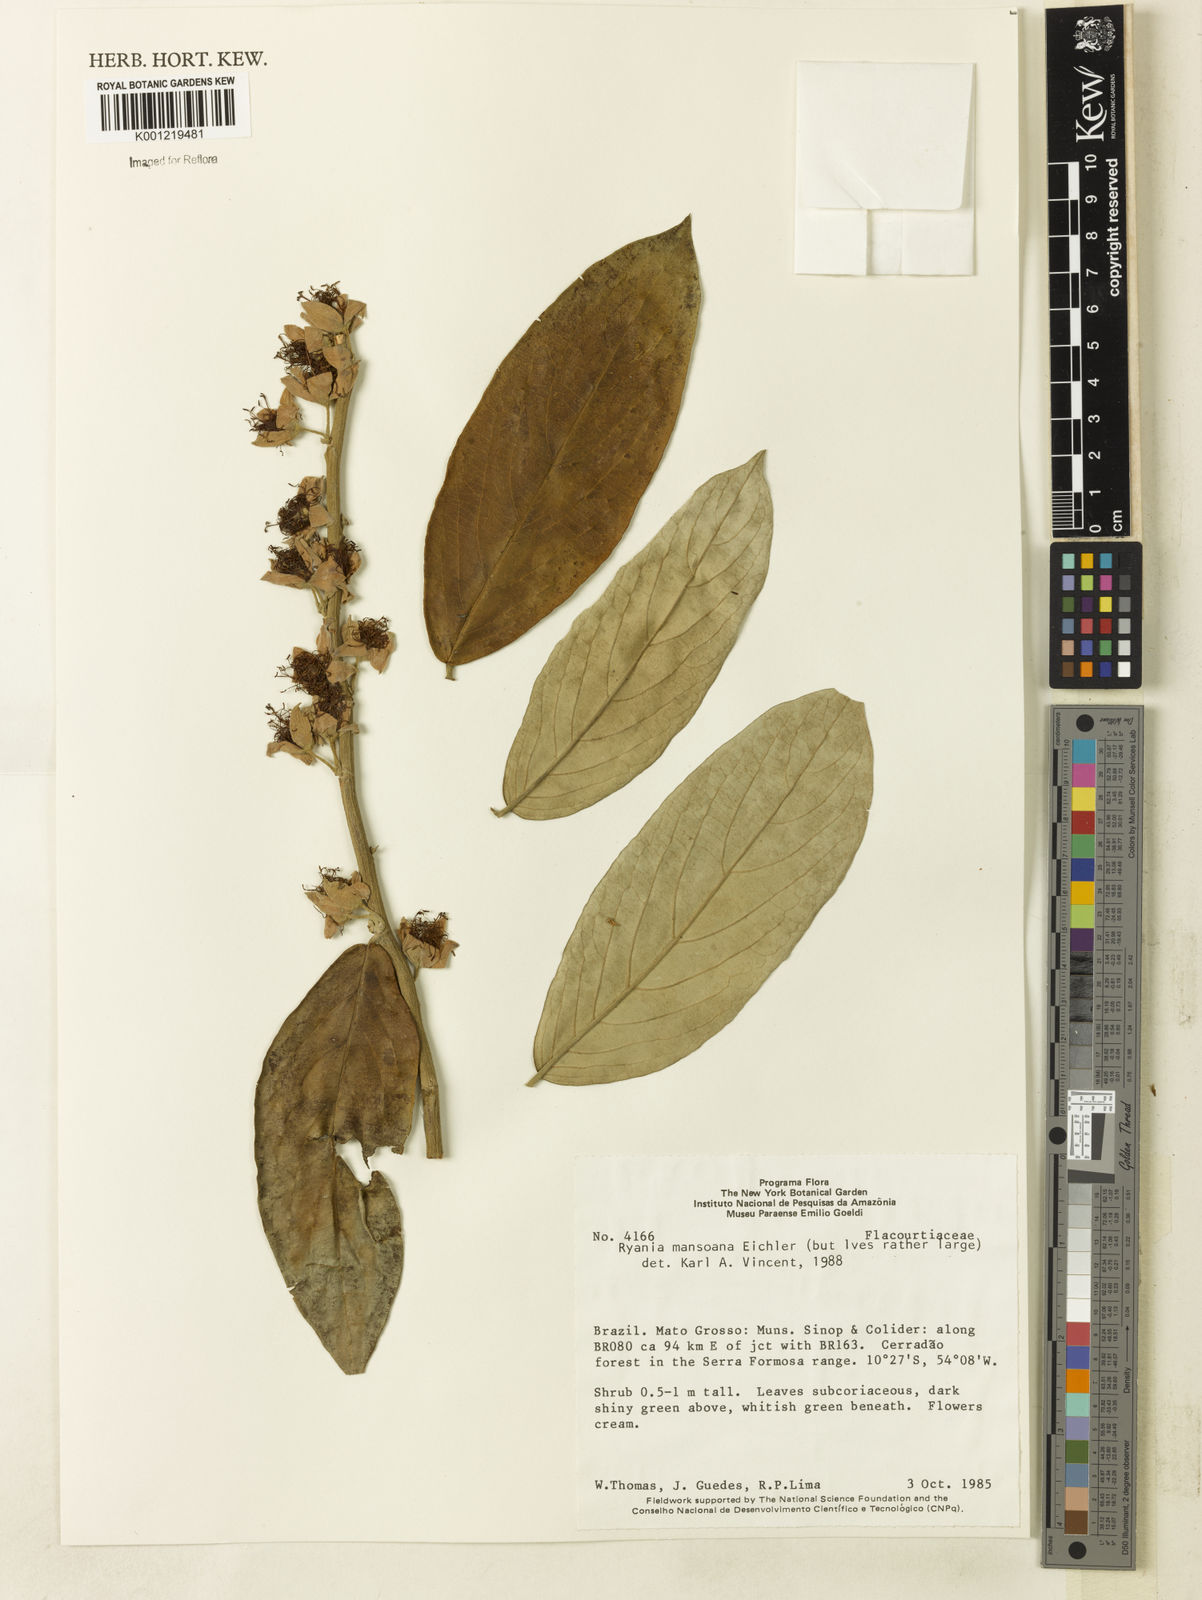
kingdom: Plantae
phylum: Tracheophyta
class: Magnoliopsida
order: Malpighiales
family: Salicaceae
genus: Ryania
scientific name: Ryania mansoana
